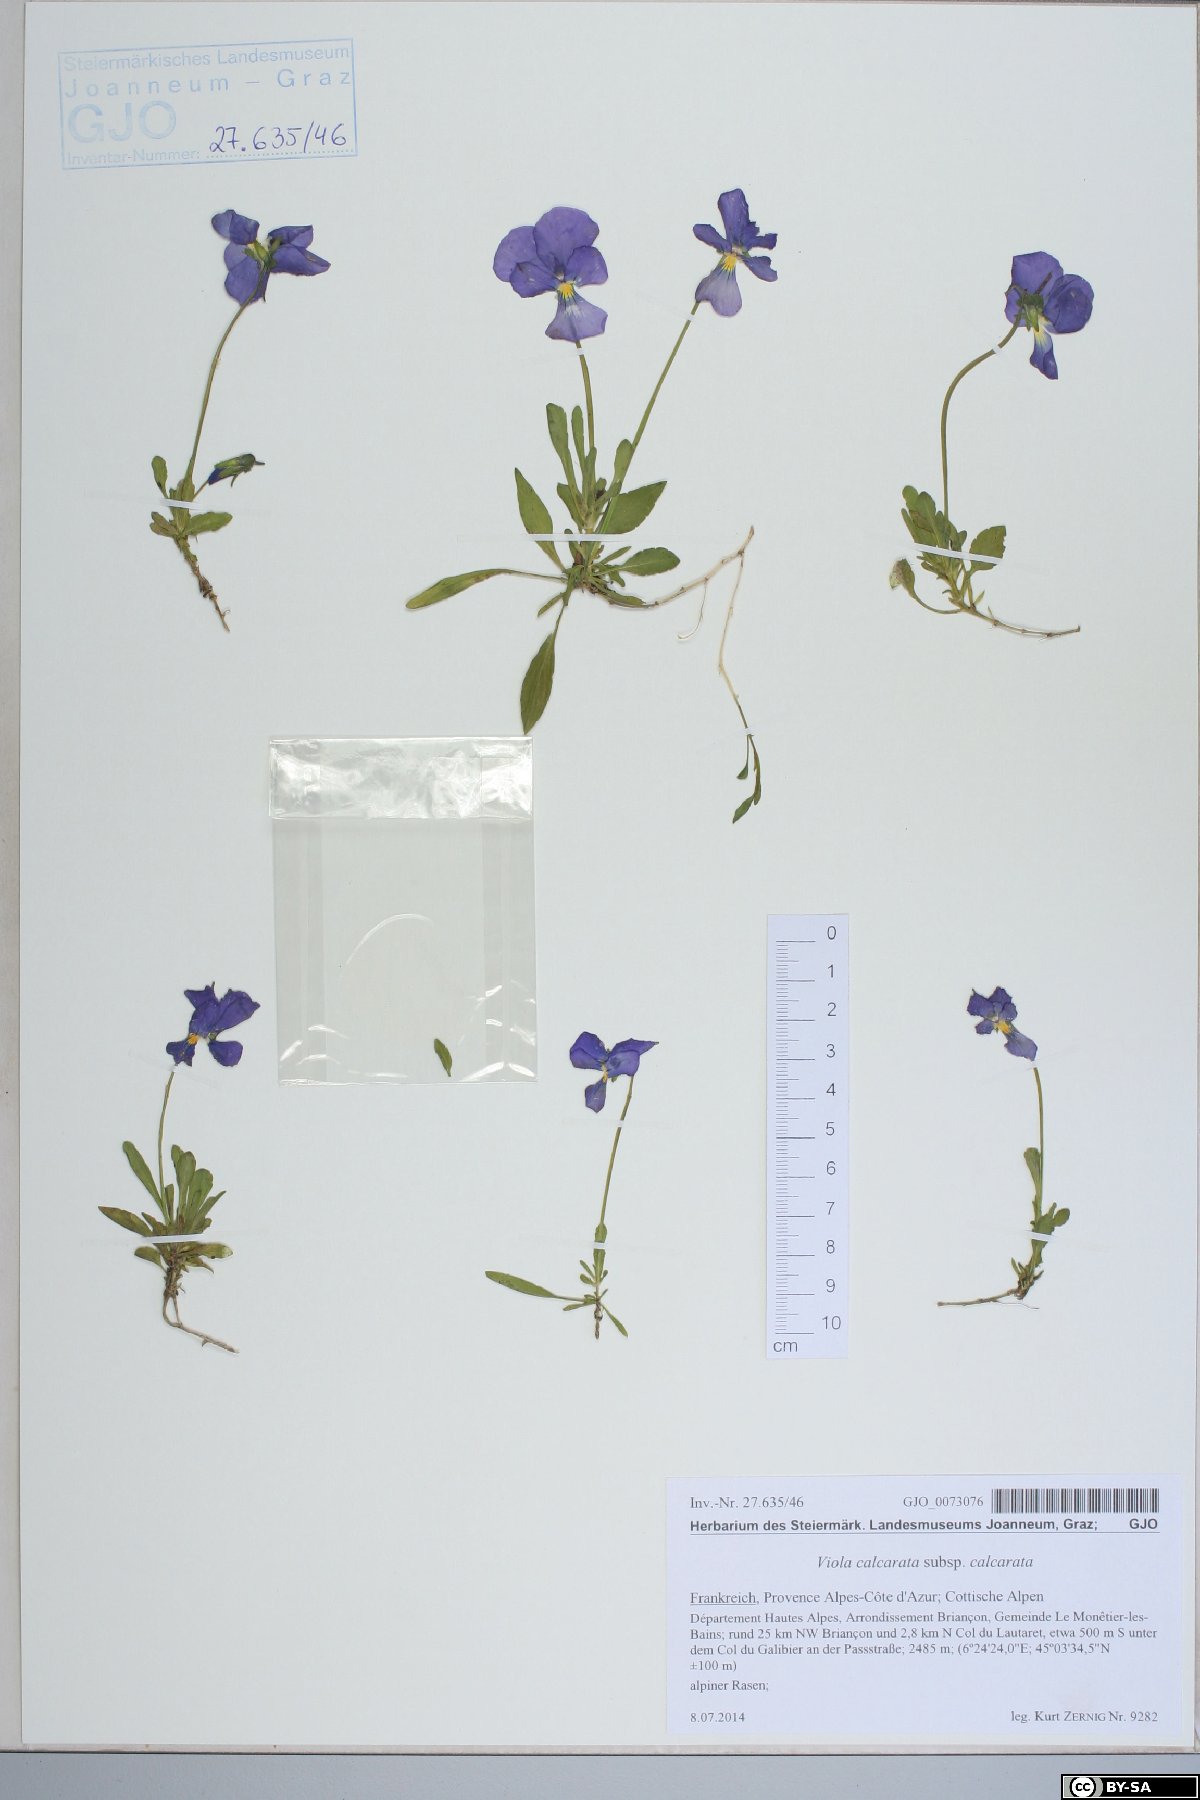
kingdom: Plantae
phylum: Tracheophyta
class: Magnoliopsida
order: Malpighiales
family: Violaceae
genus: Viola
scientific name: Viola calcarata
